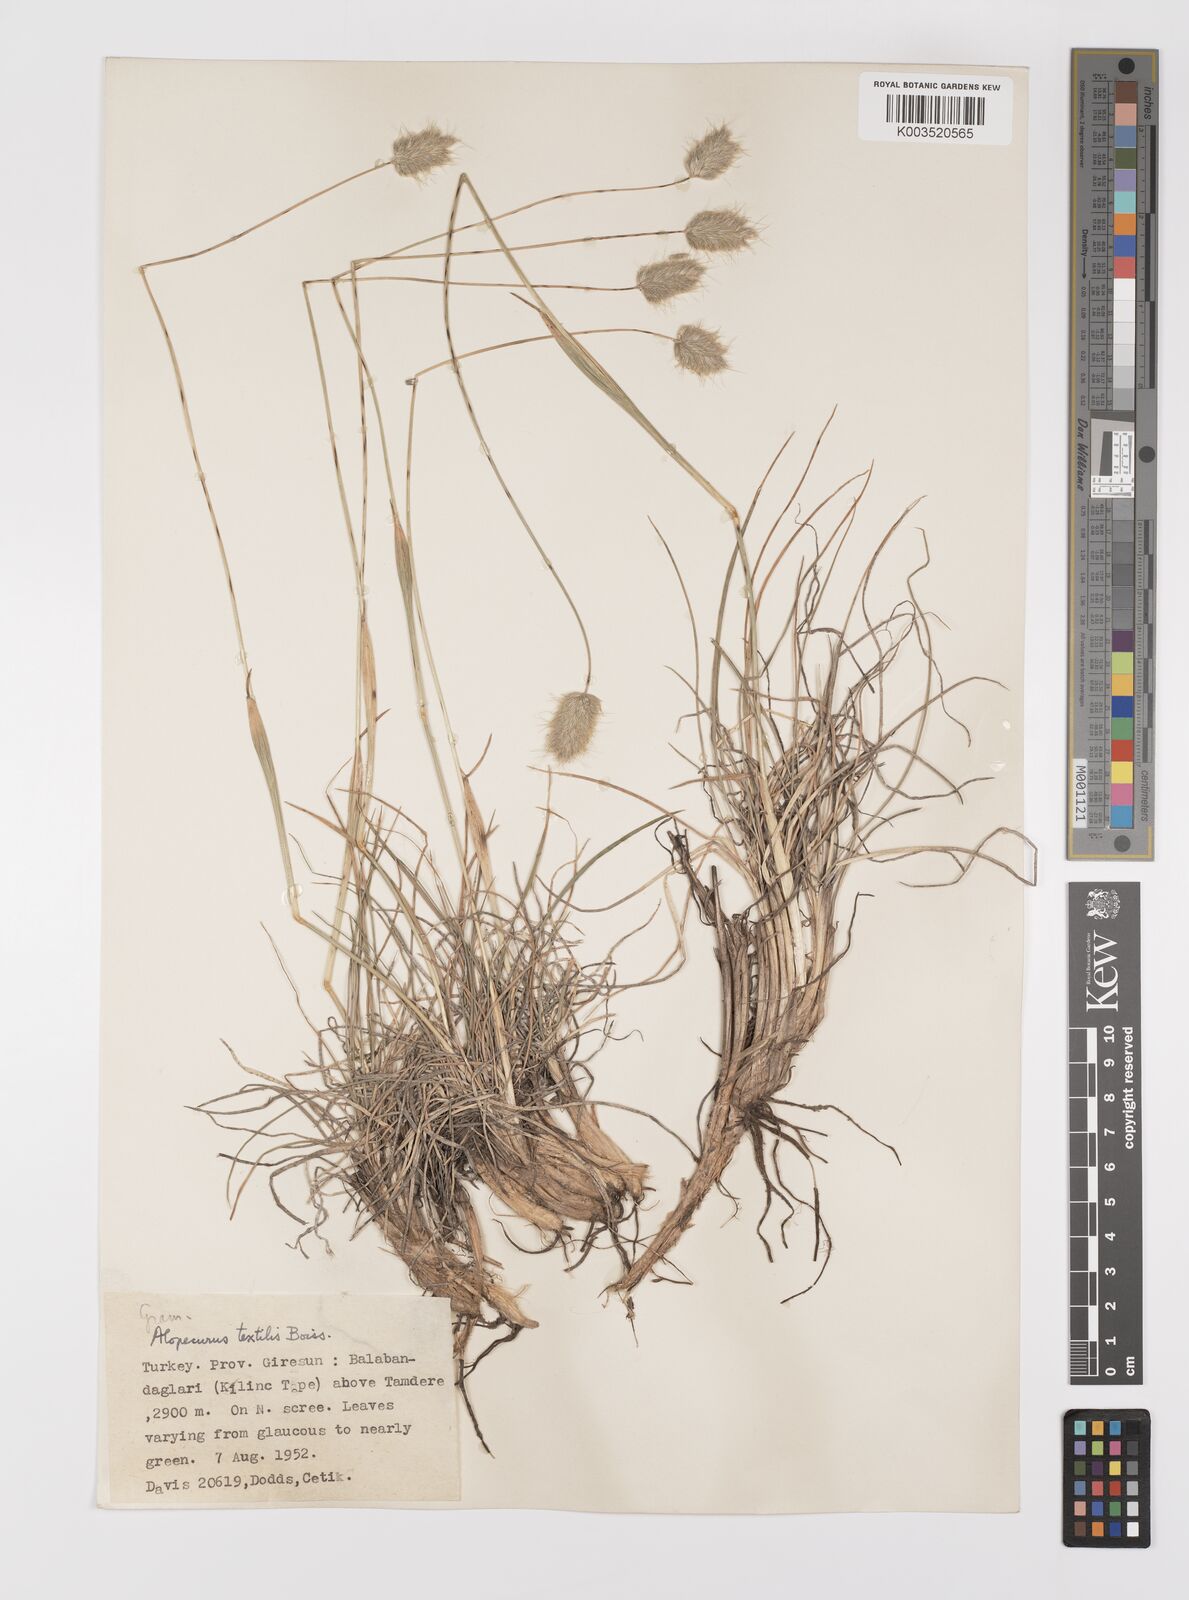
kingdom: Plantae
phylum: Tracheophyta
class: Liliopsida
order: Poales
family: Poaceae
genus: Alopecurus
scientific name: Alopecurus textilis
